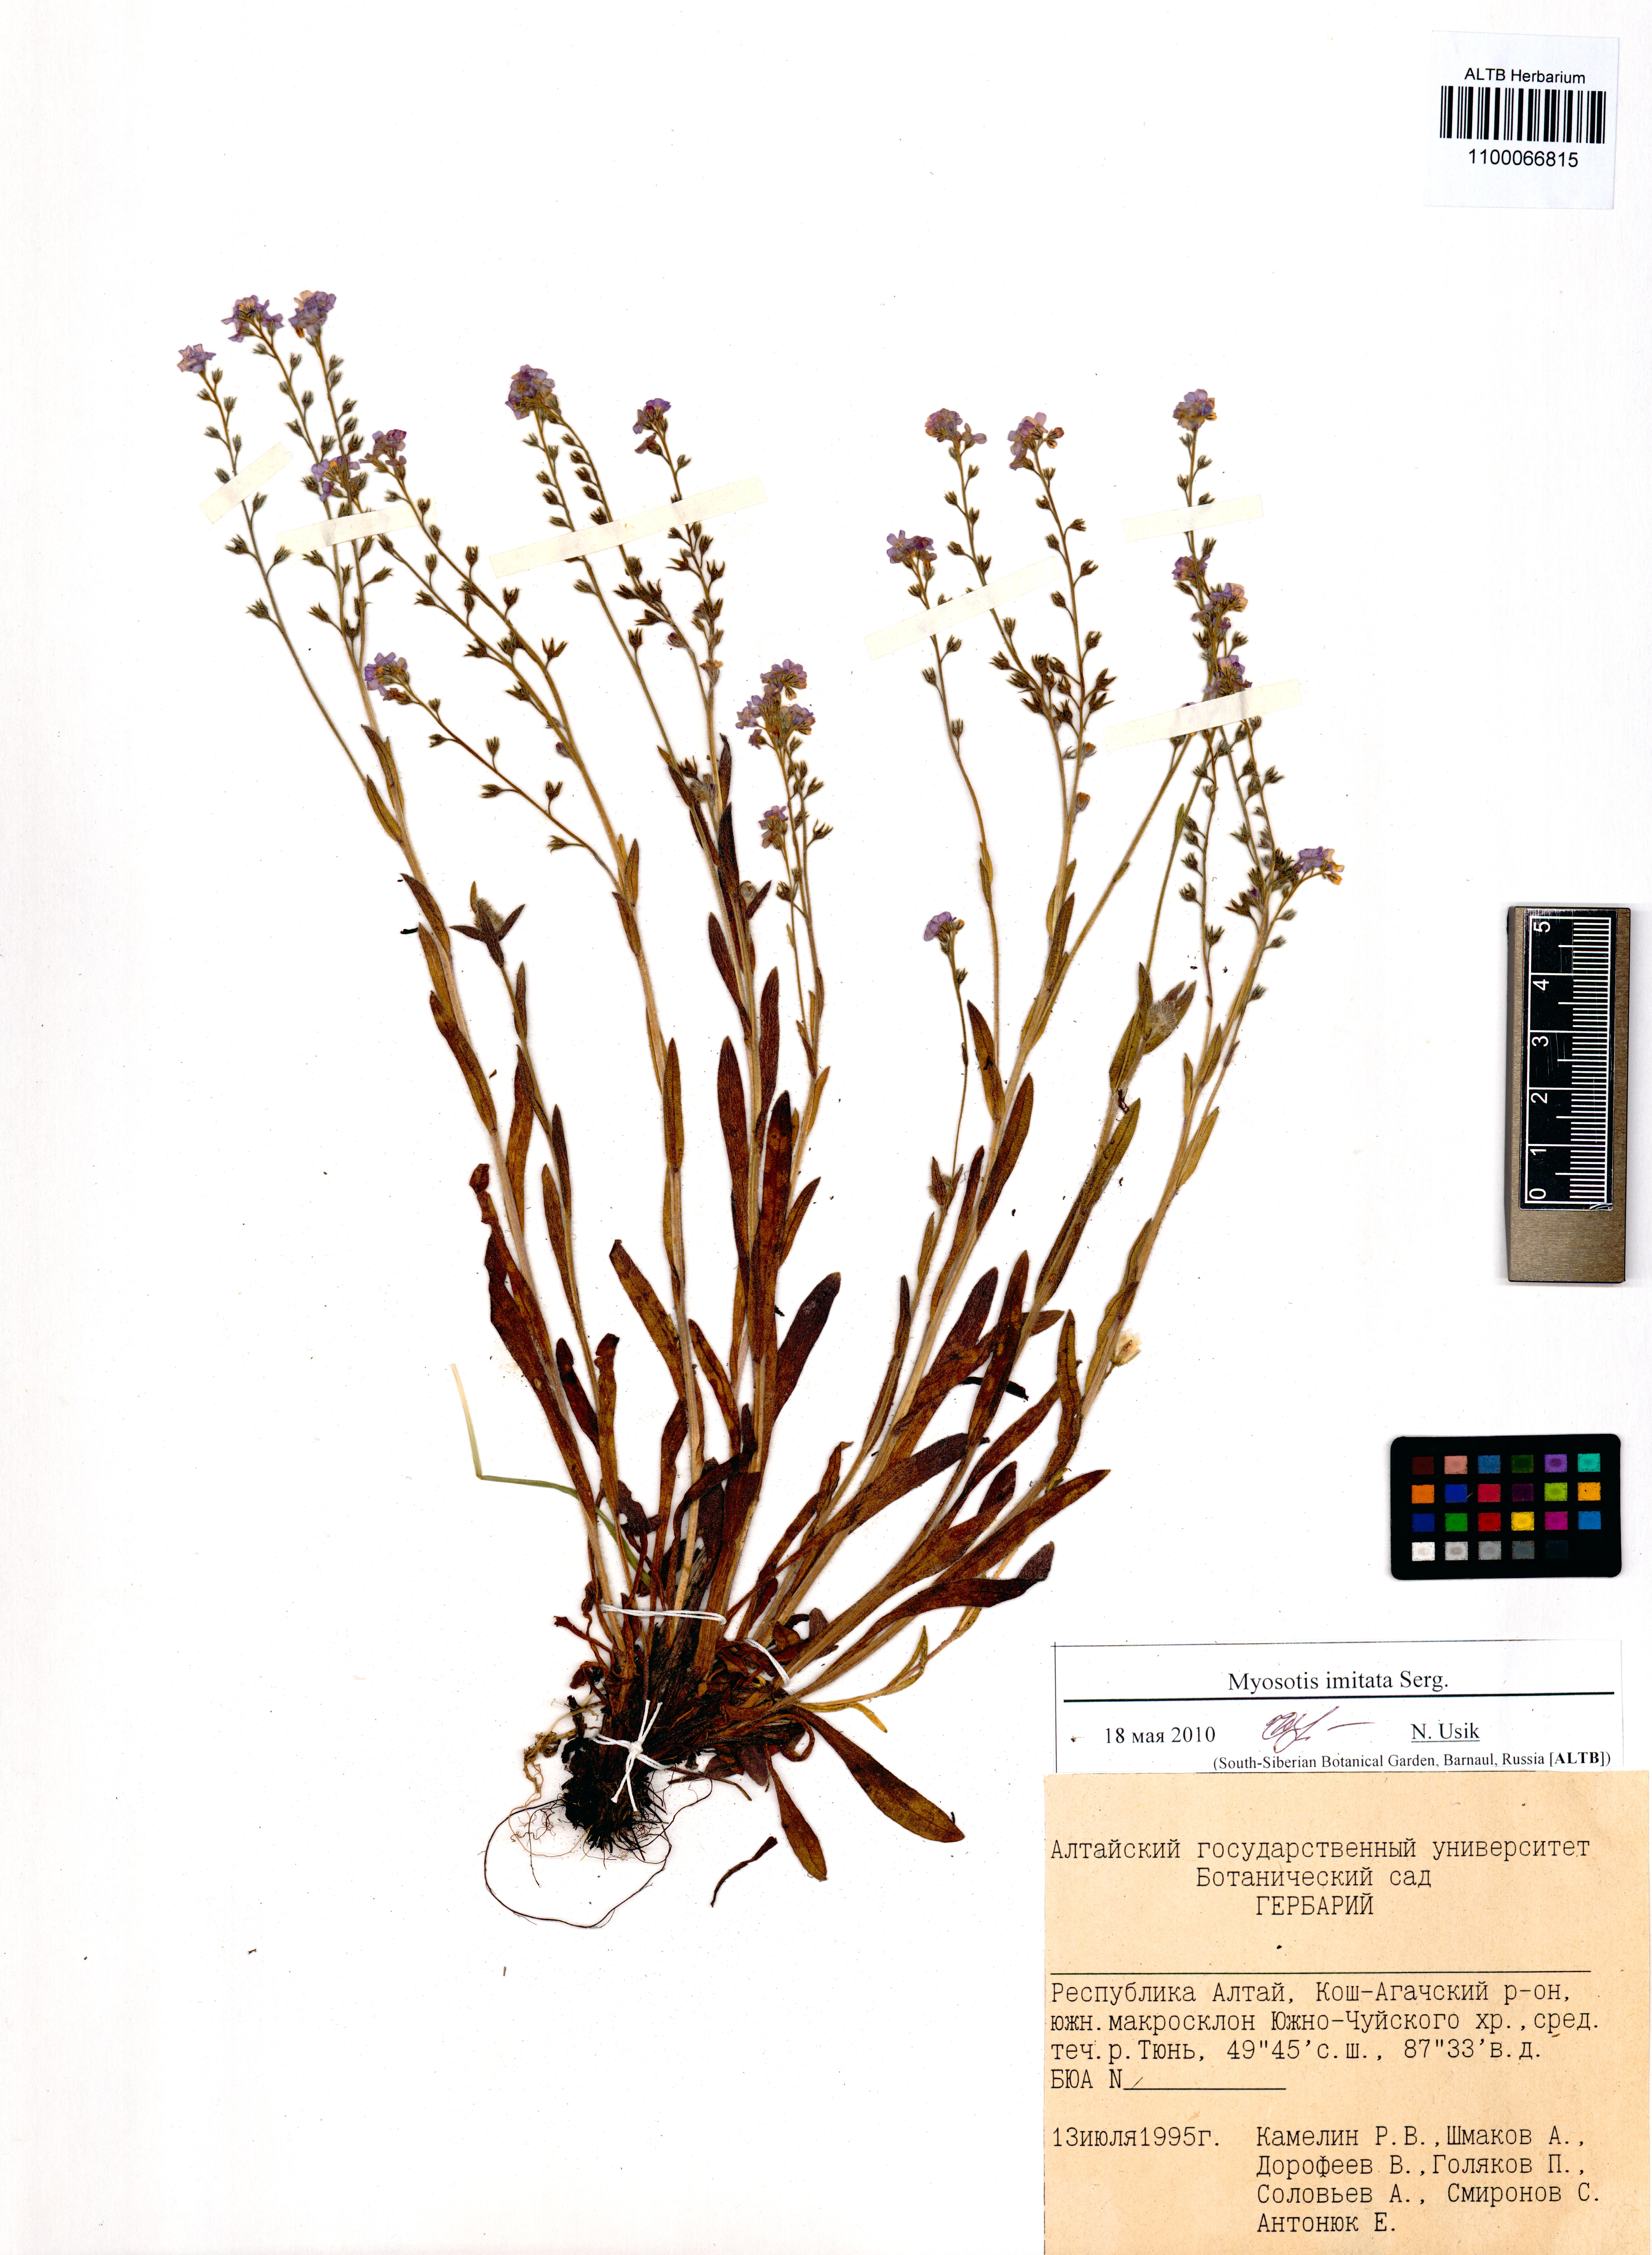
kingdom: Plantae
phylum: Tracheophyta
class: Magnoliopsida
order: Boraginales
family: Boraginaceae
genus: Myosotis
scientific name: Myosotis imitata
